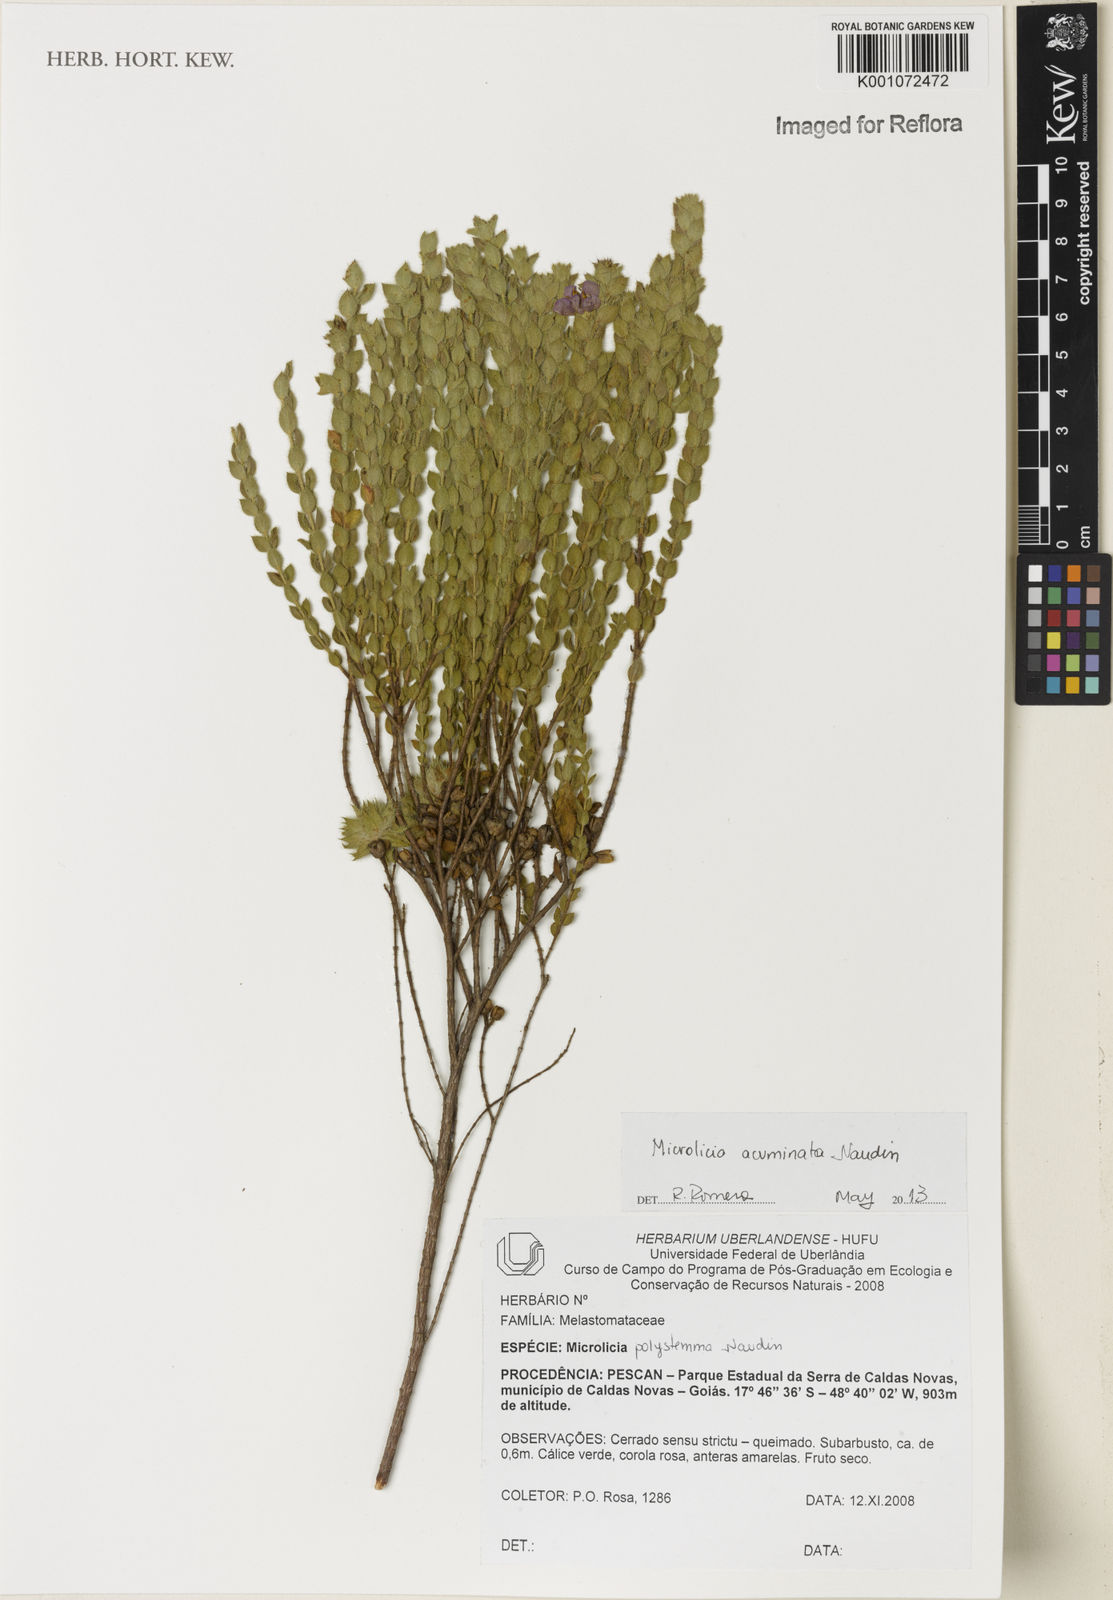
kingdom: Plantae
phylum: Tracheophyta
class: Magnoliopsida
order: Myrtales
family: Melastomataceae
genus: Microlicia
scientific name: Microlicia
